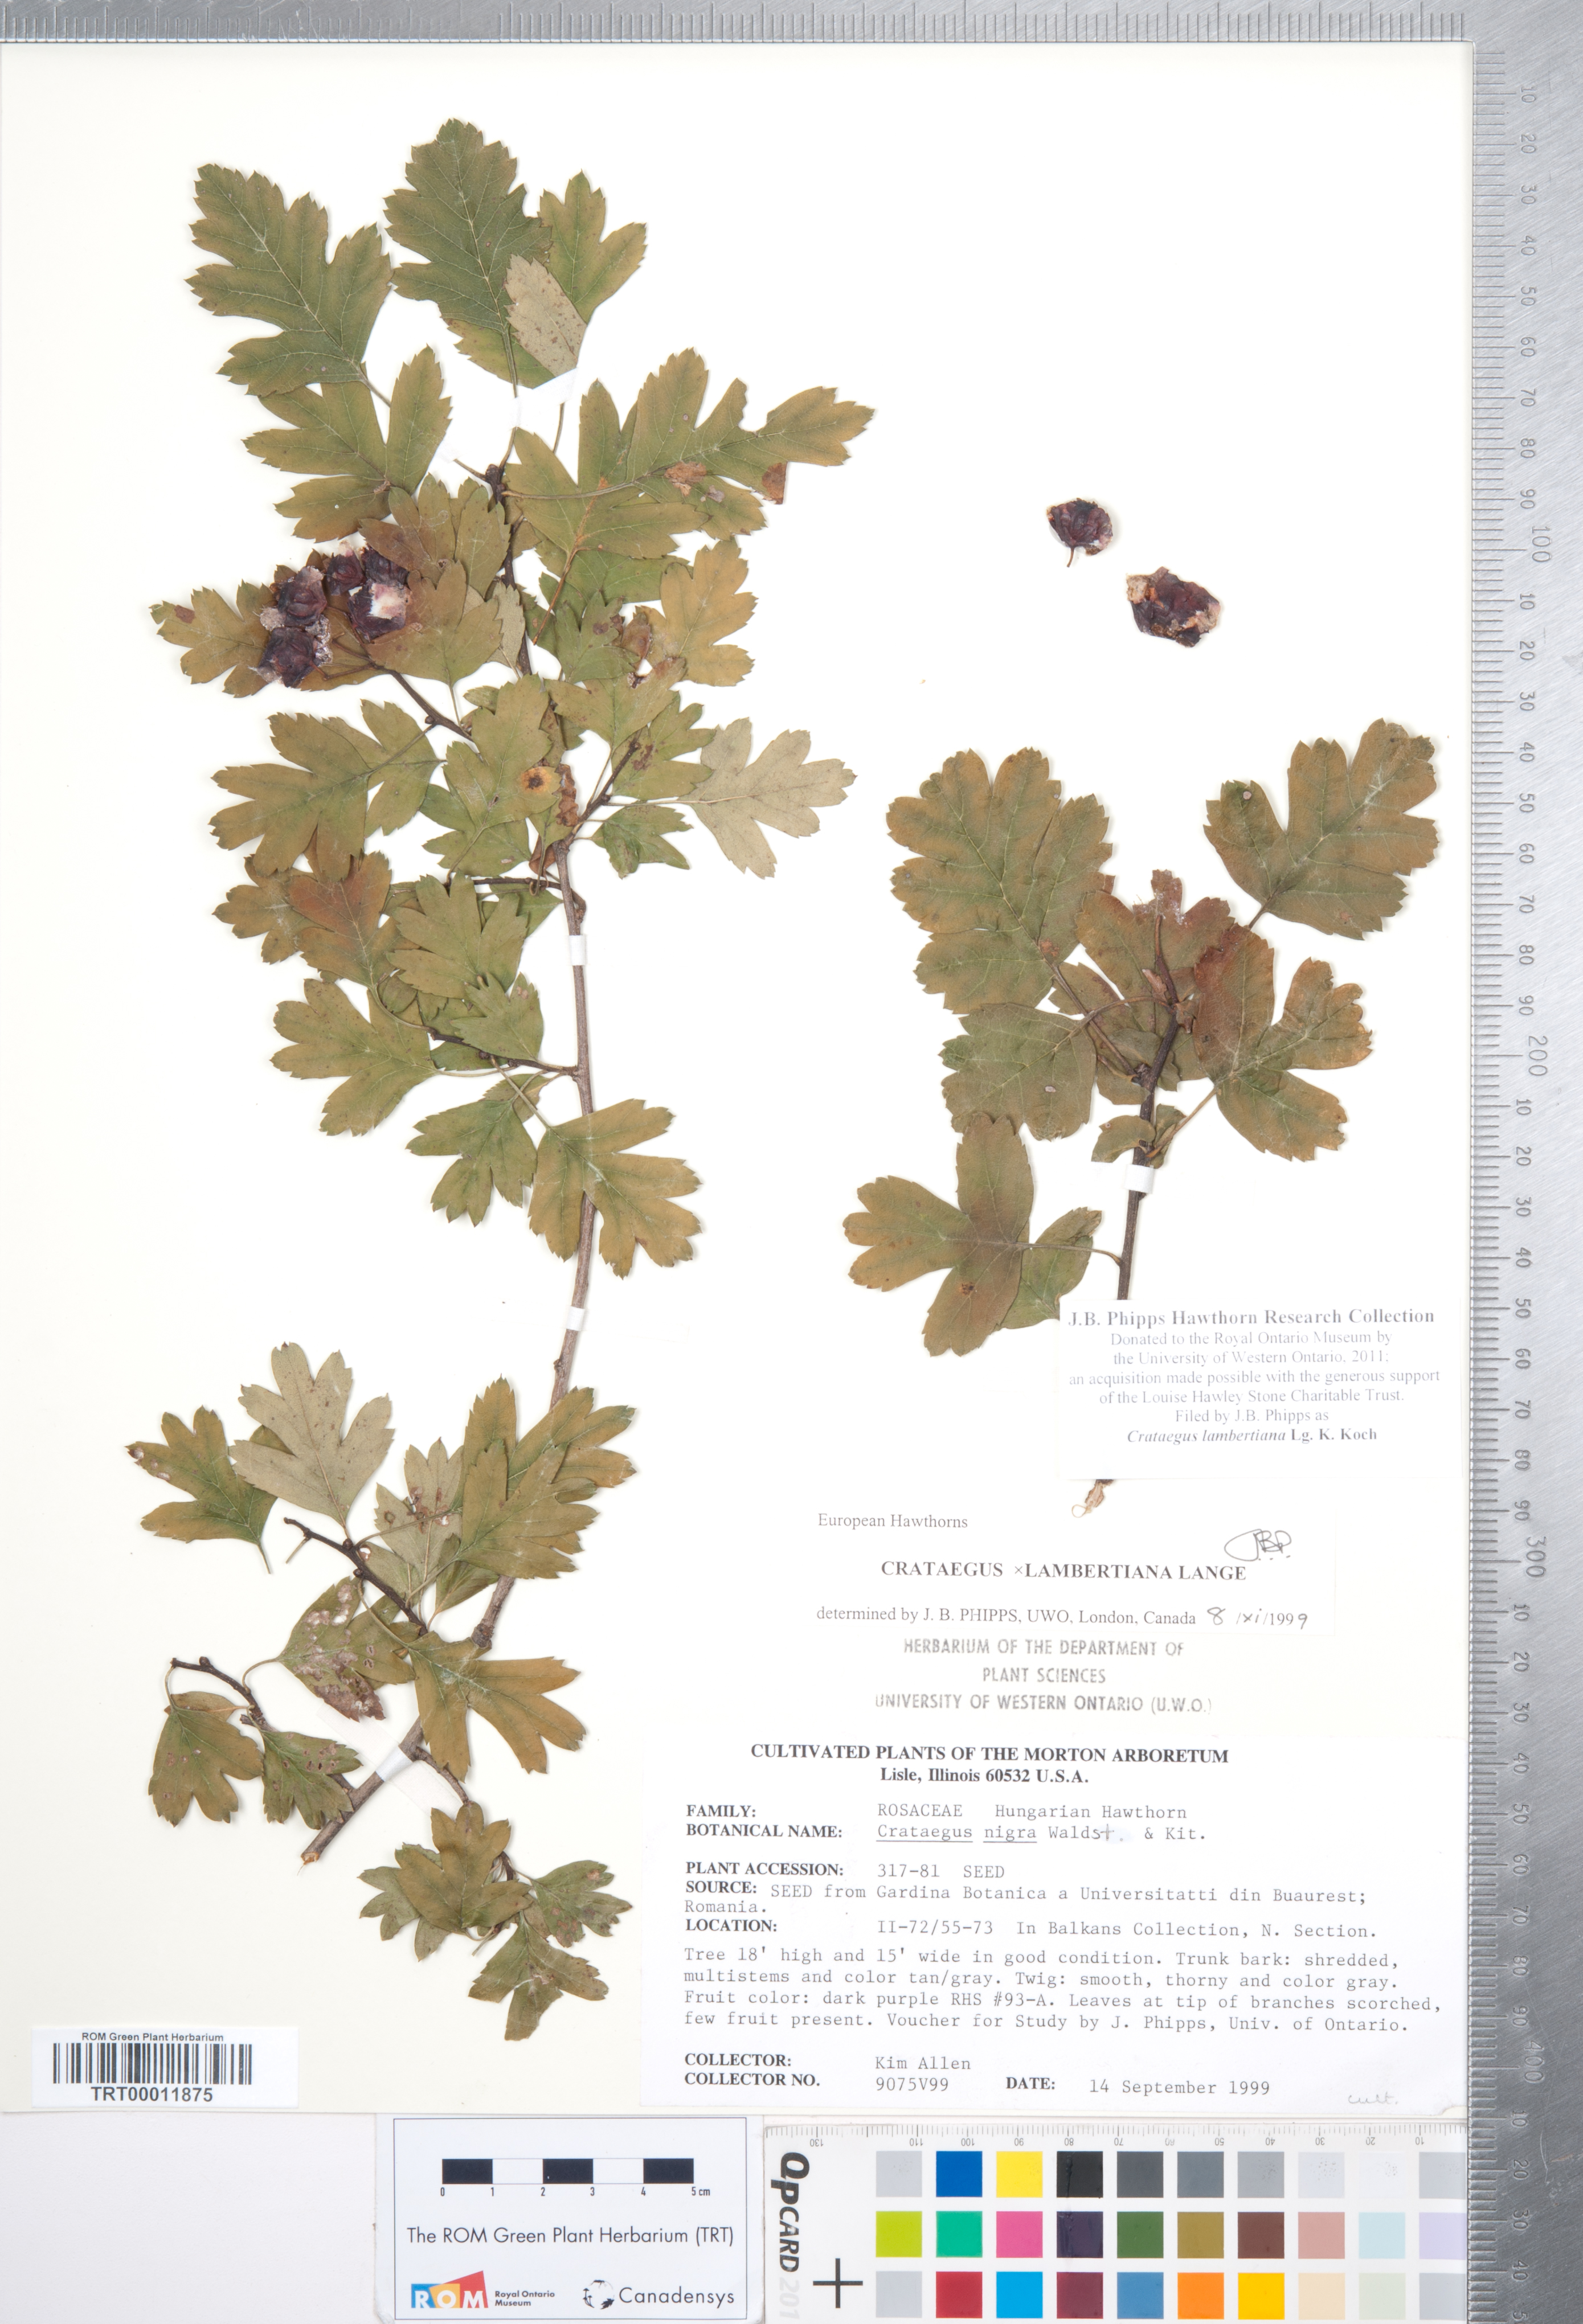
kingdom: Plantae
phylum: Tracheophyta
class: Magnoliopsida
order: Rosales
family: Rosaceae
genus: Crataegus
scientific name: Crataegus gracilior
